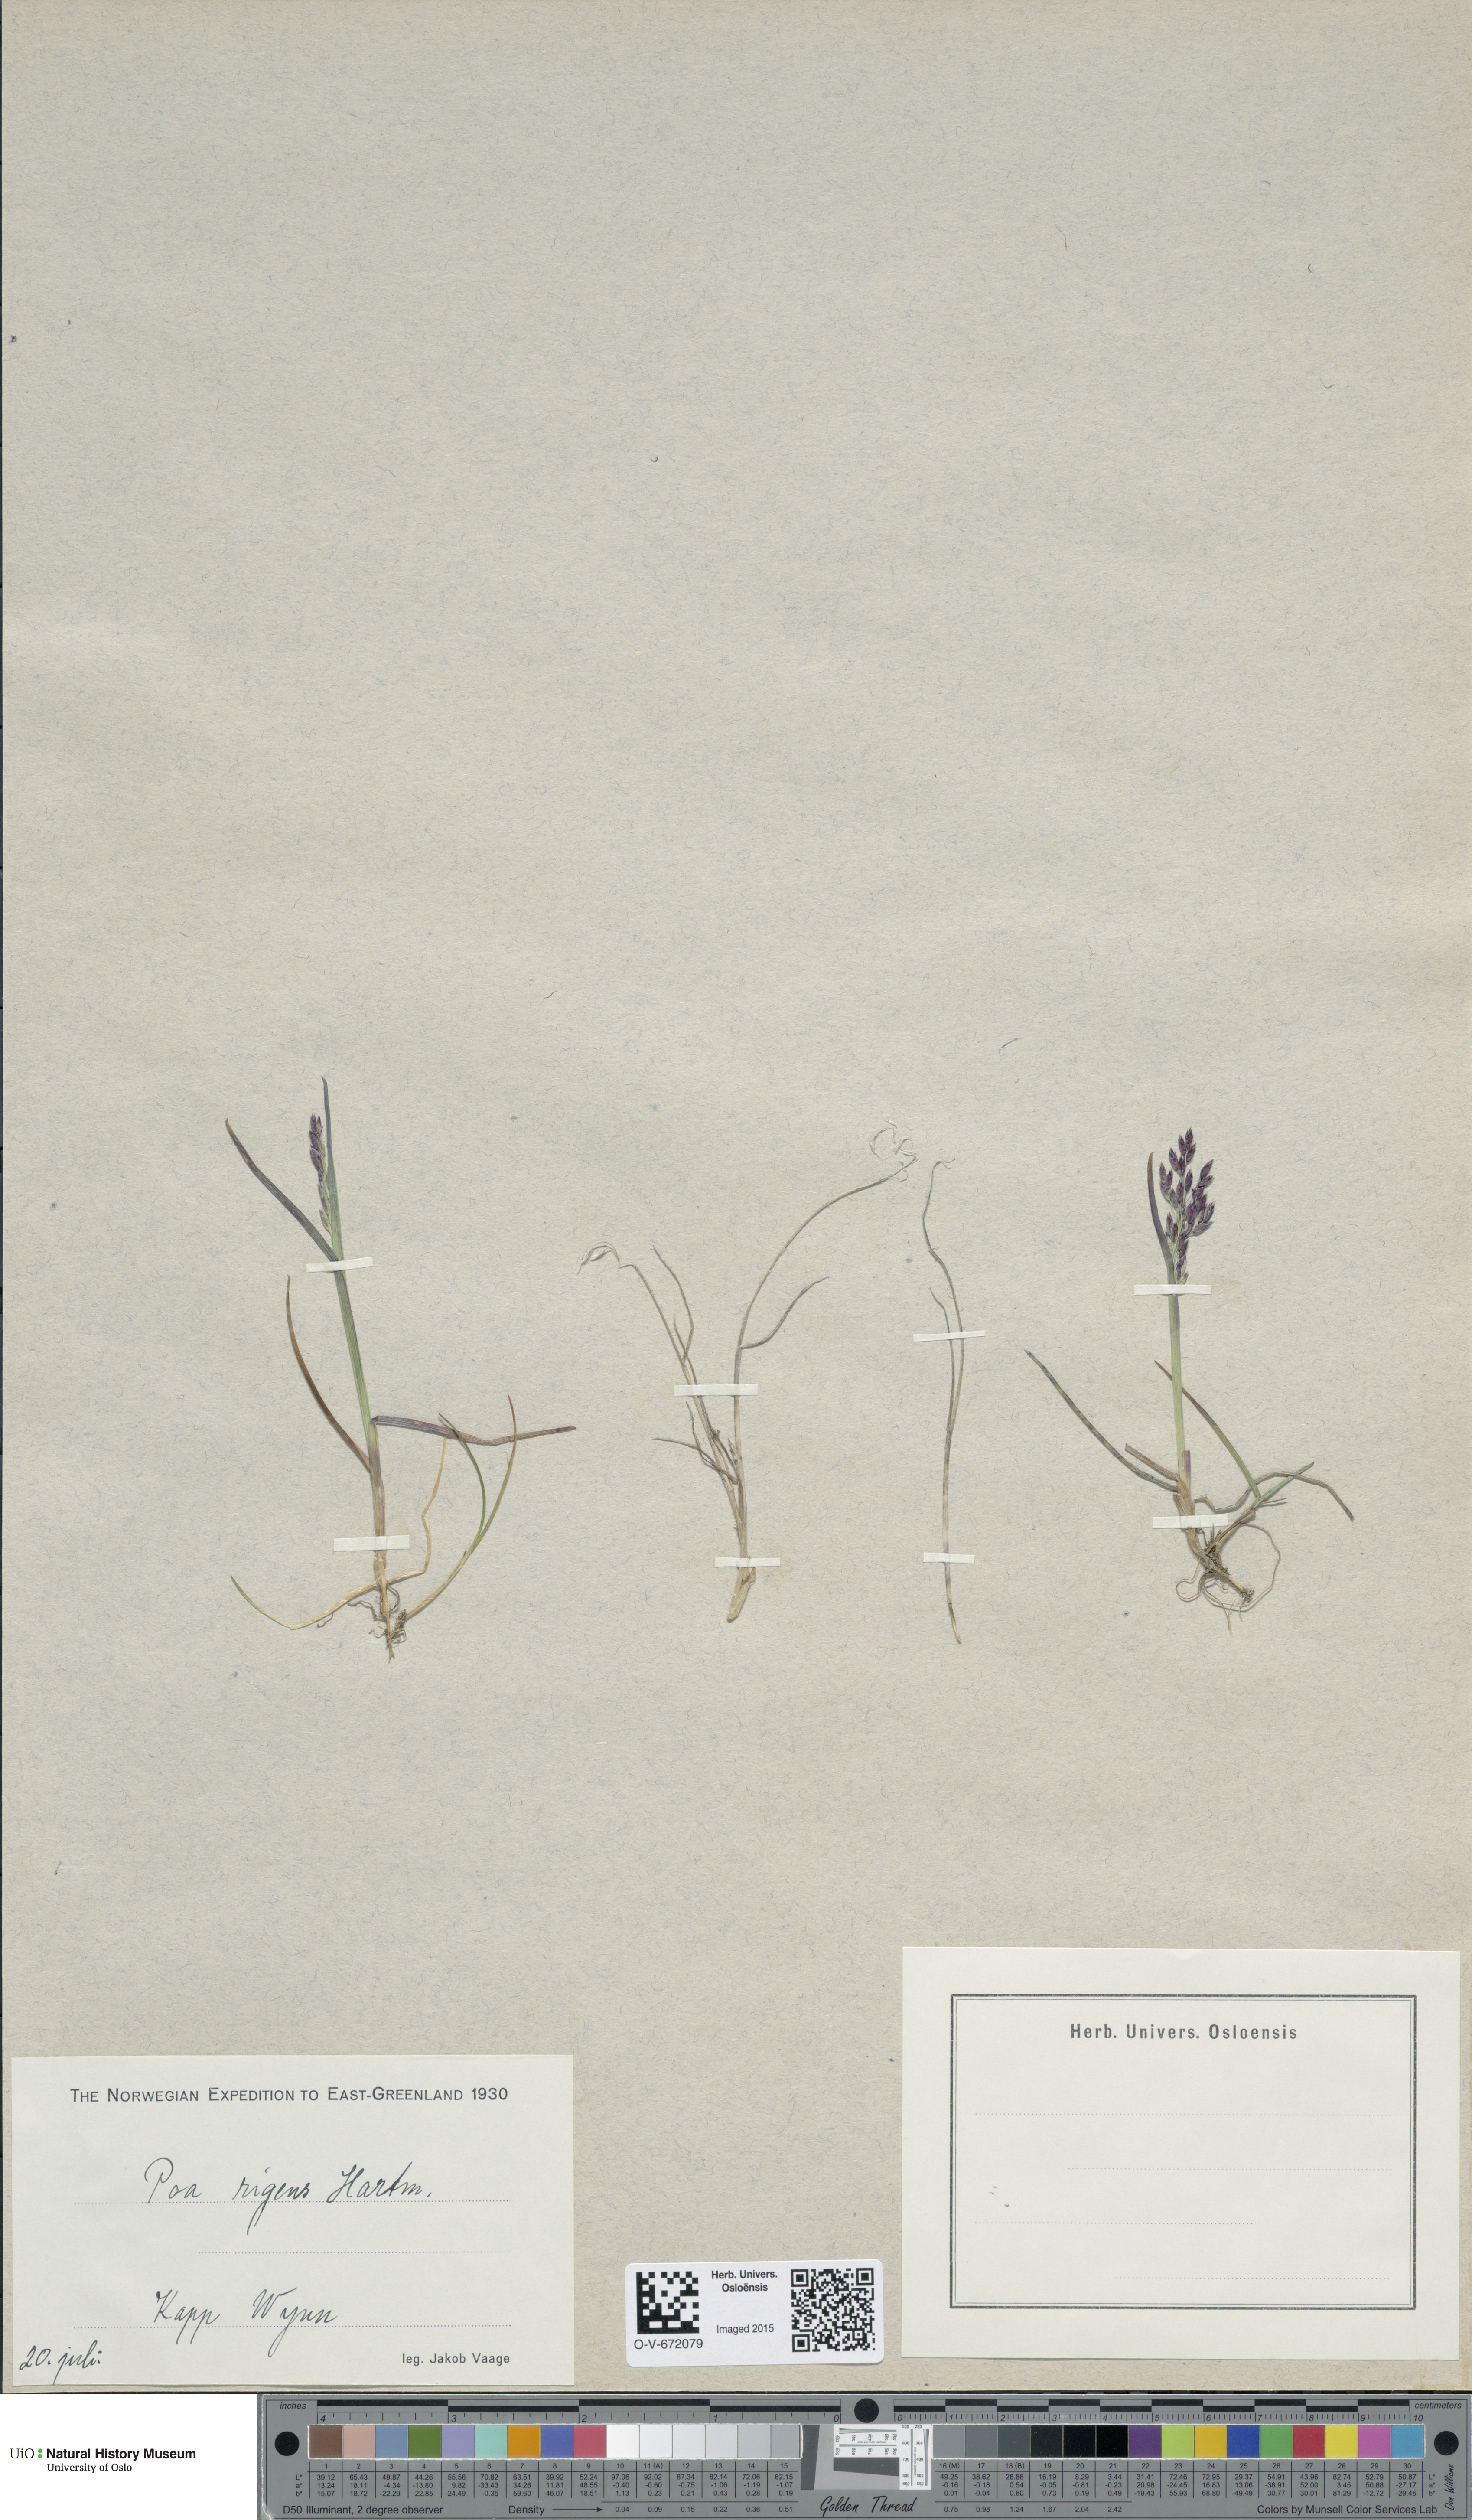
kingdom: Plantae
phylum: Tracheophyta
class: Liliopsida
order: Poales
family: Poaceae
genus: Poa
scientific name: Poa arctica
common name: Arctic bluegrass
